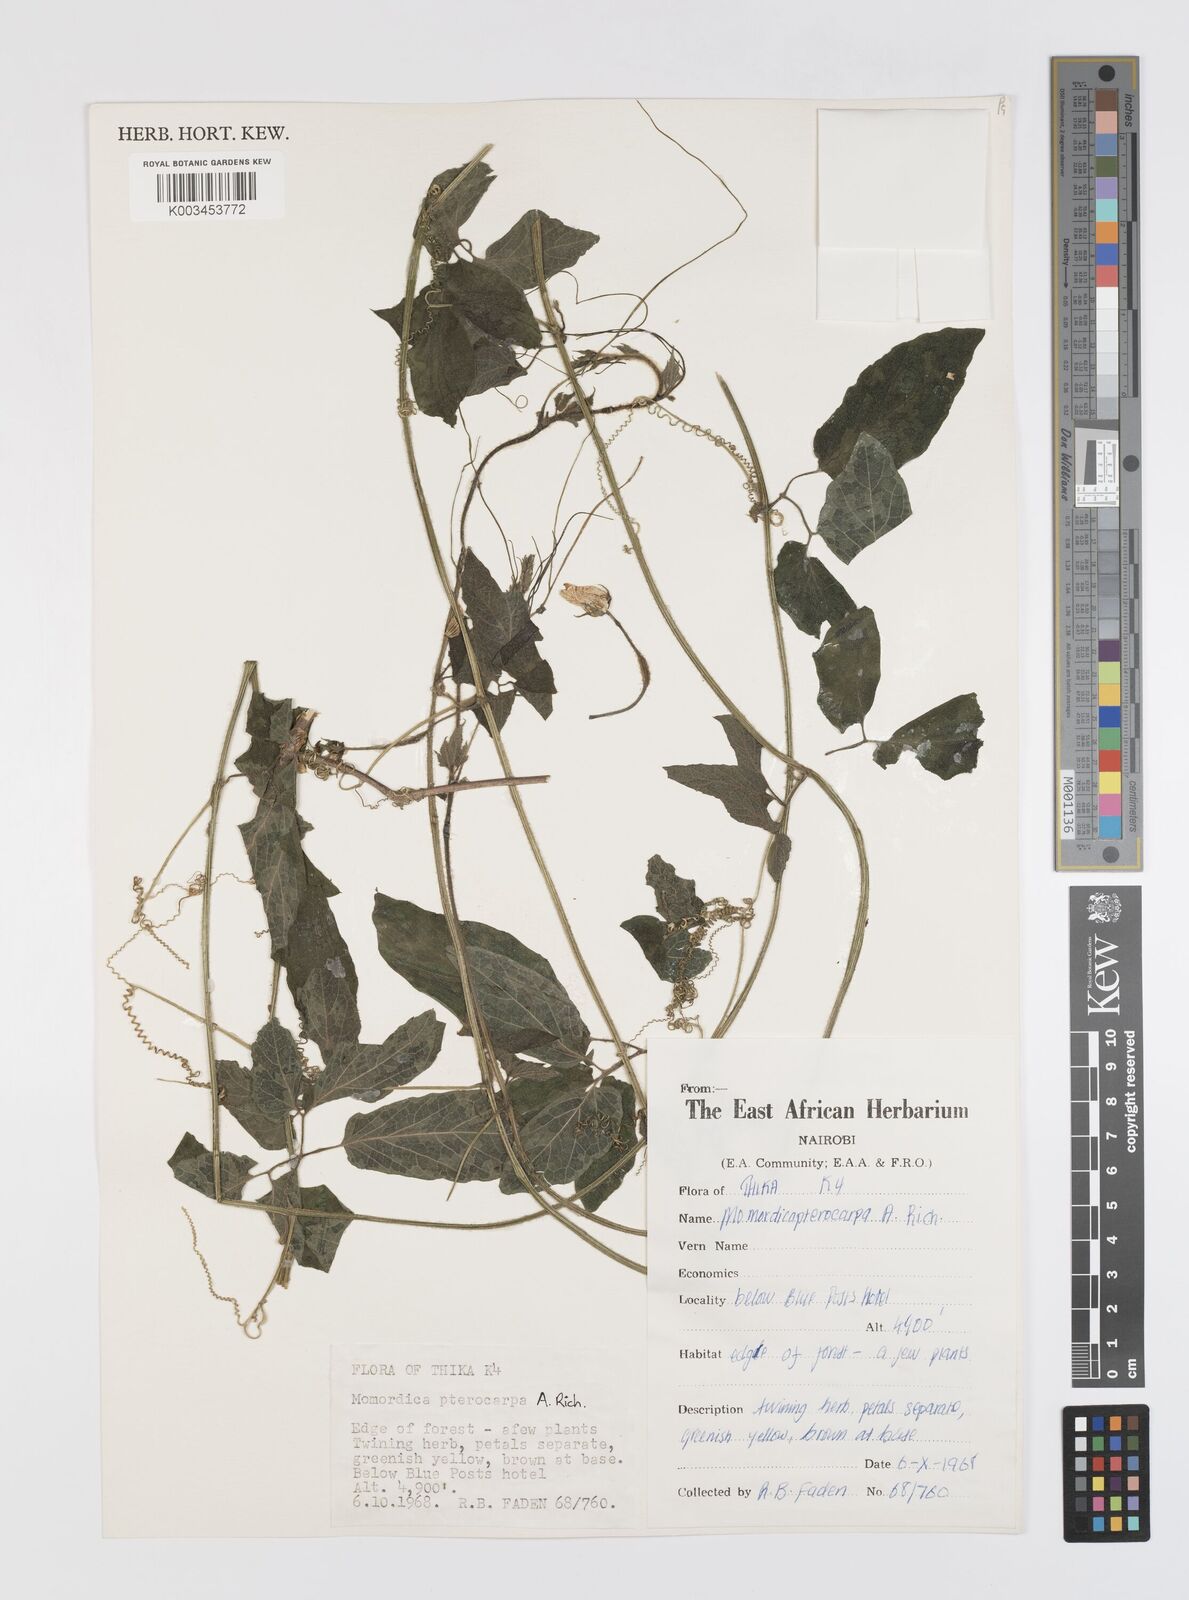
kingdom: Plantae
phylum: Tracheophyta
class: Magnoliopsida
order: Cucurbitales
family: Cucurbitaceae
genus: Momordica
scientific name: Momordica pterocarpa
